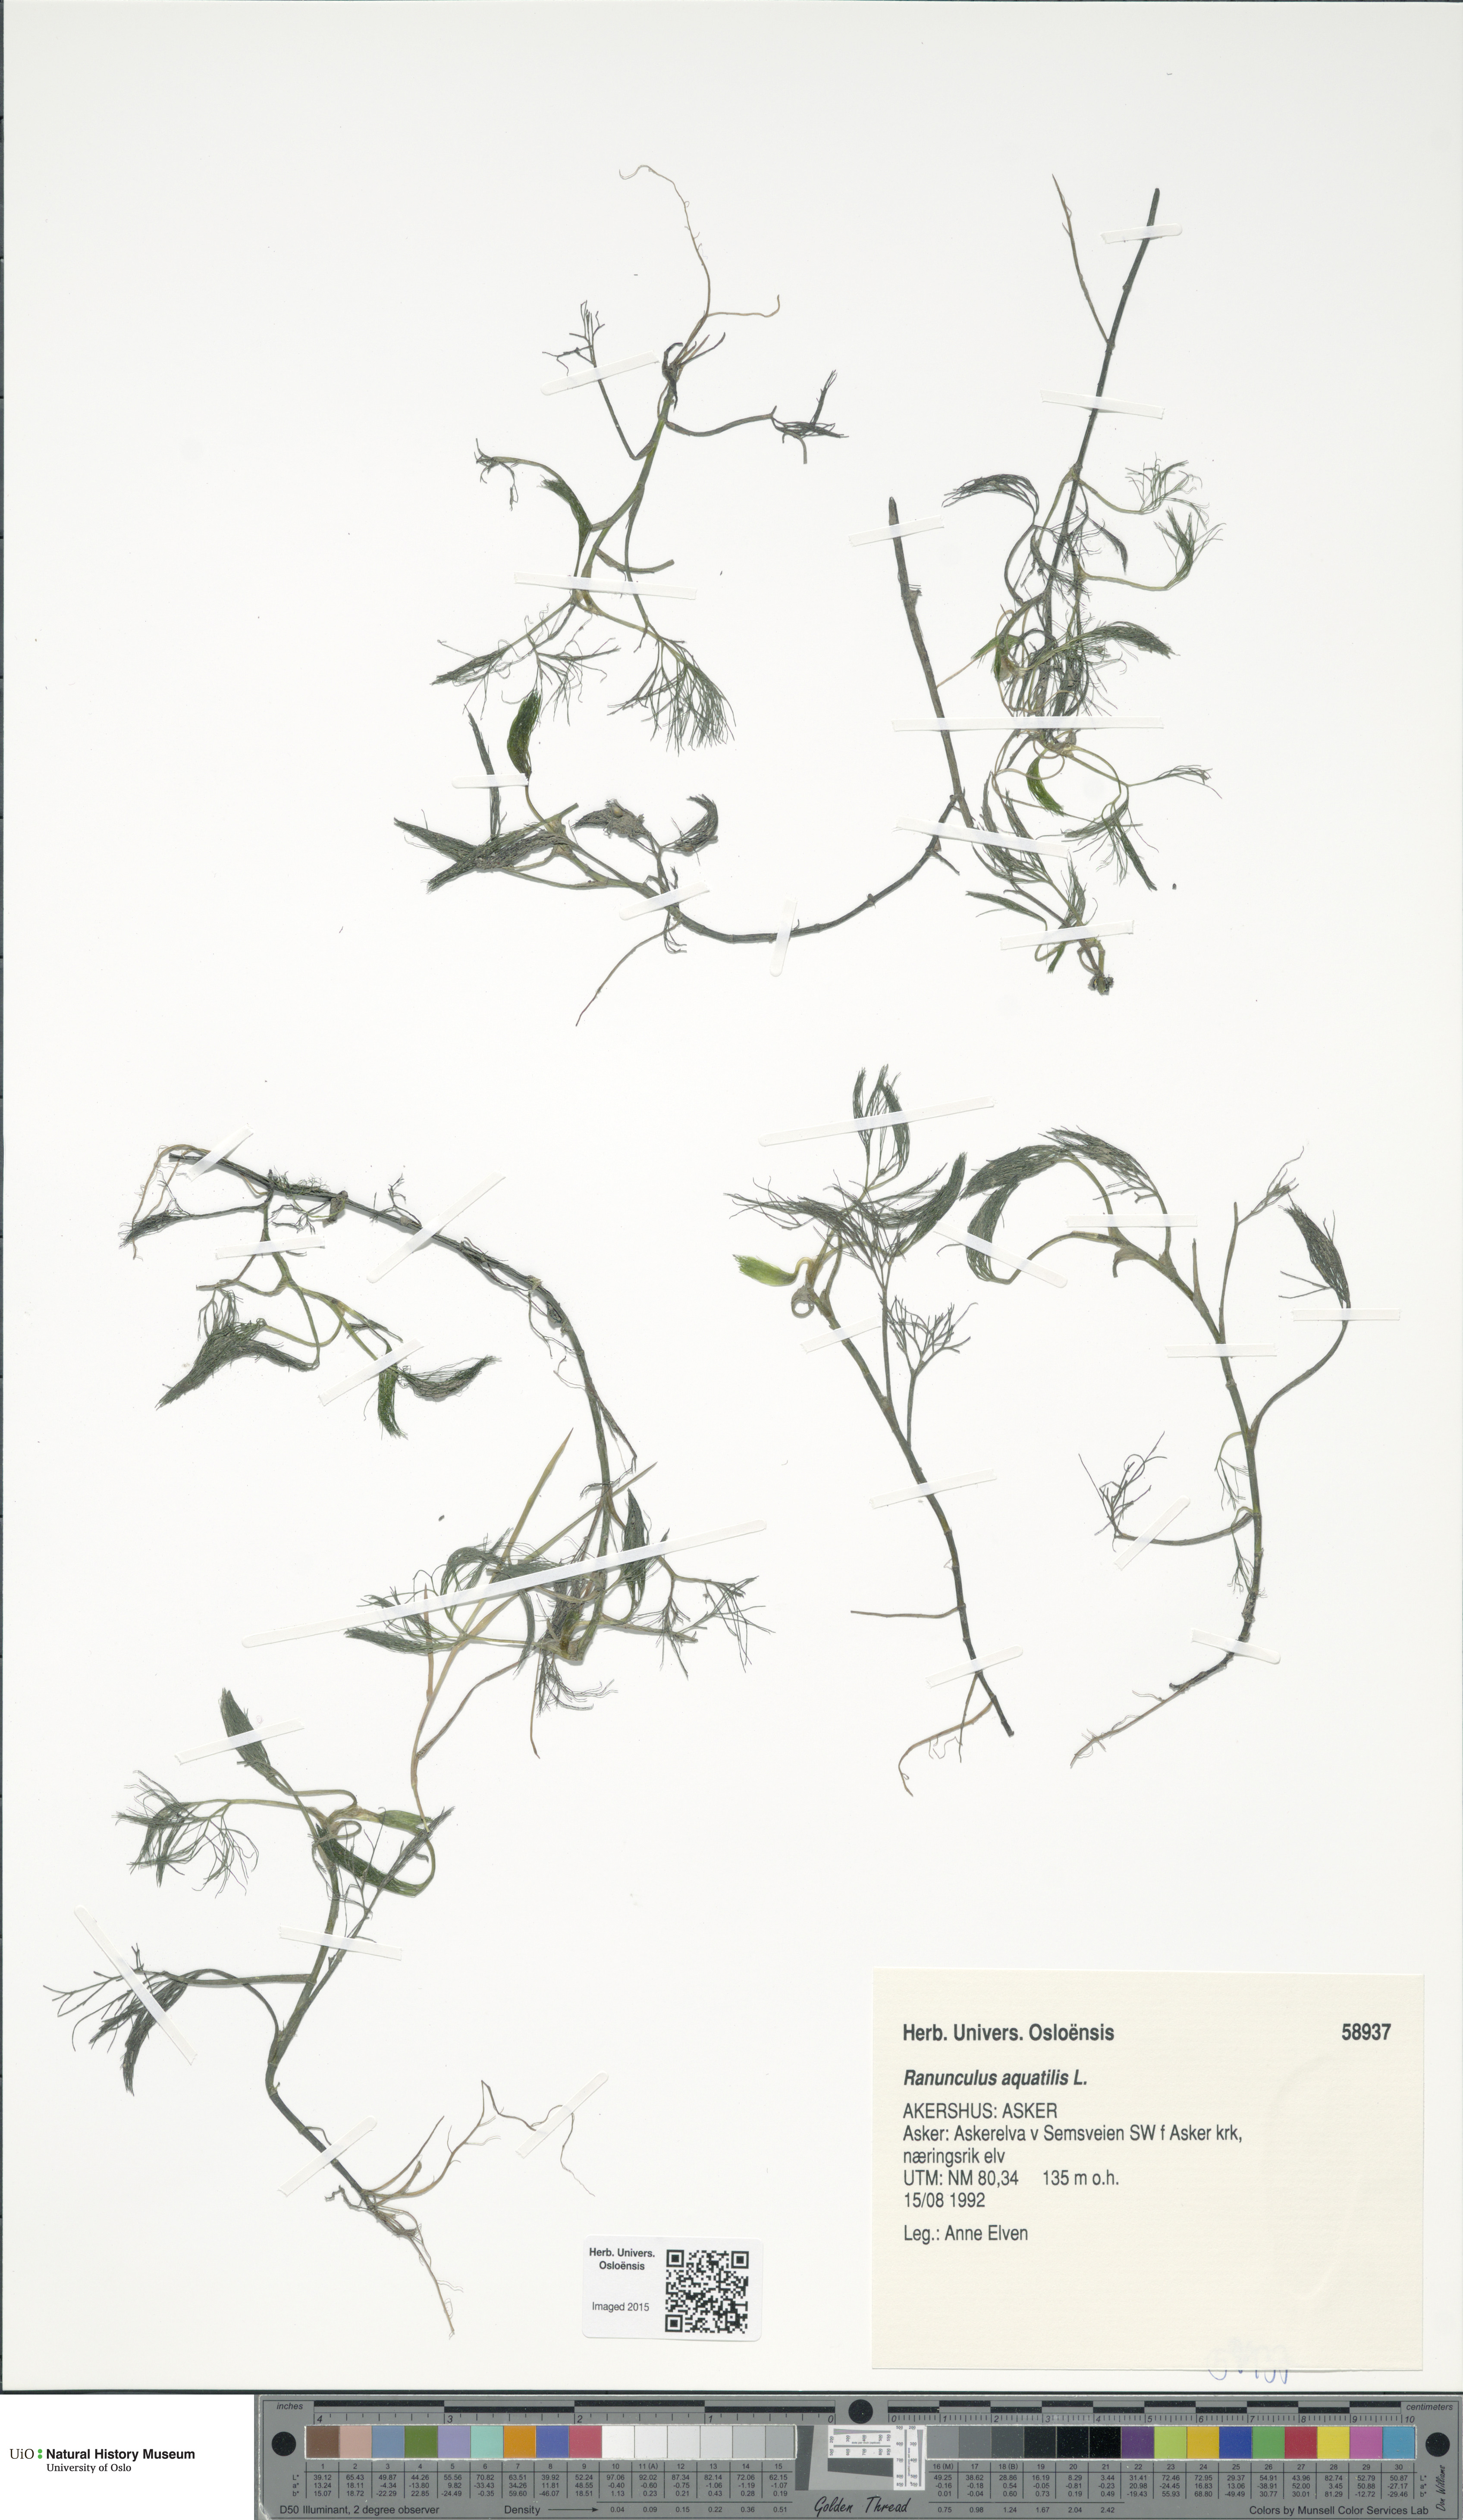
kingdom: Plantae
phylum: Tracheophyta
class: Magnoliopsida
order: Ranunculales
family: Ranunculaceae
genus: Ranunculus
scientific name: Ranunculus aquatilis
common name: Common water-crowfoot
